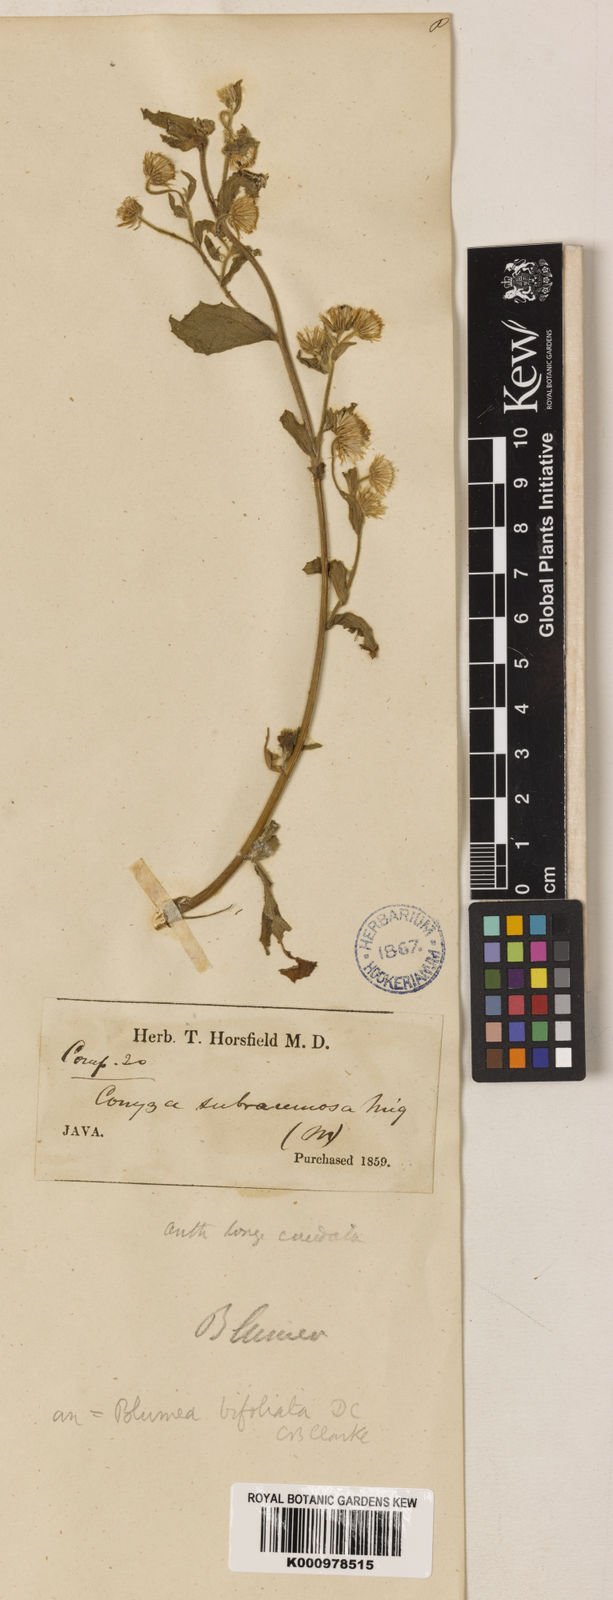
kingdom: Plantae
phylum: Tracheophyta
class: Magnoliopsida
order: Asterales
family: Asteraceae
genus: Blumea
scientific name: Blumea bifoliata
